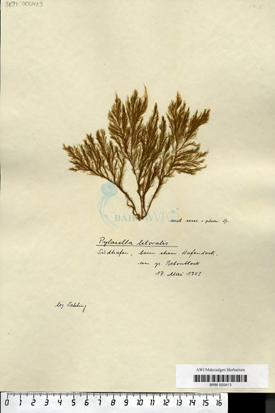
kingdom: Chromista
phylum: Ochrophyta
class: Phaeophyceae
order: Ectocarpales
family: Acinetosporaceae
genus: Pylaiella
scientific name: Pylaiella littoralis
